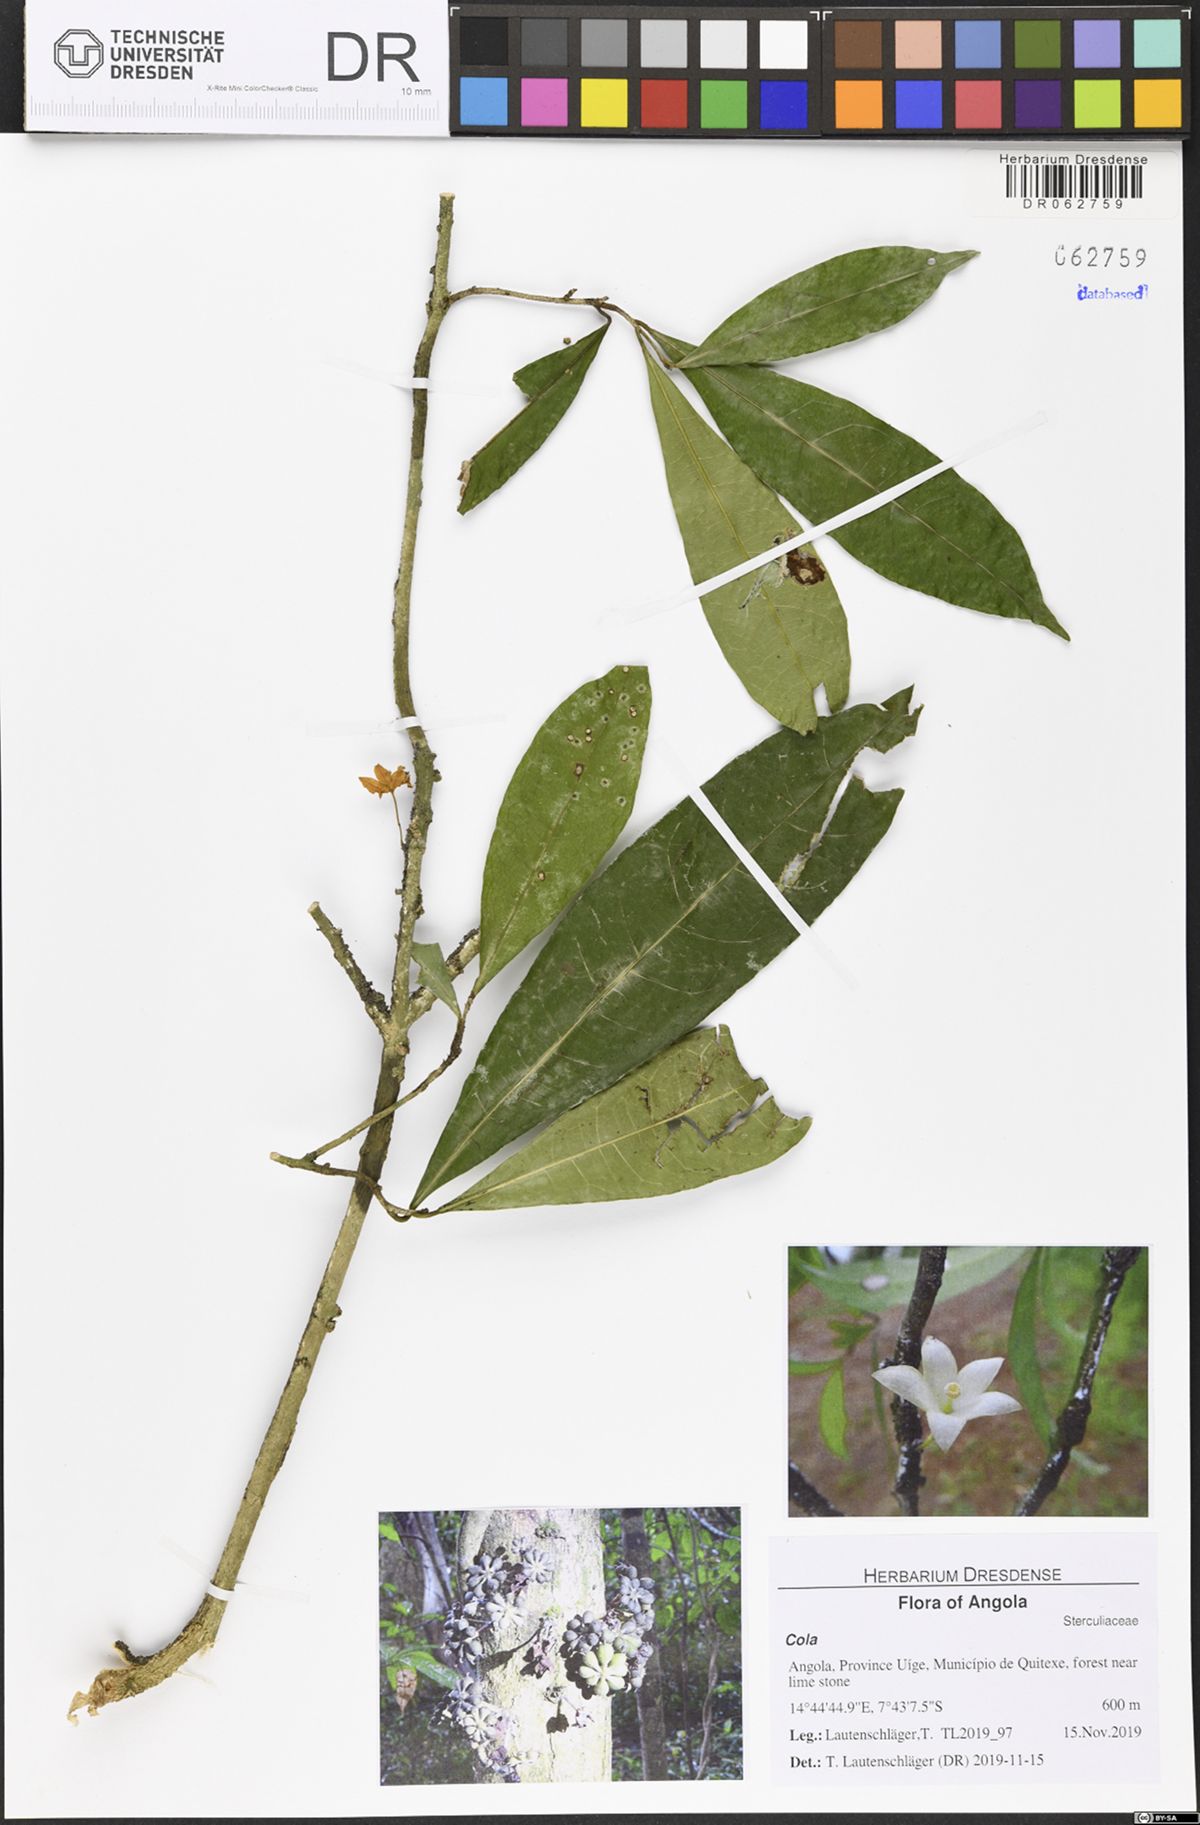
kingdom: Plantae
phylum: Tracheophyta
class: Magnoliopsida
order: Malvales
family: Malvaceae
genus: Cola
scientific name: Cola
